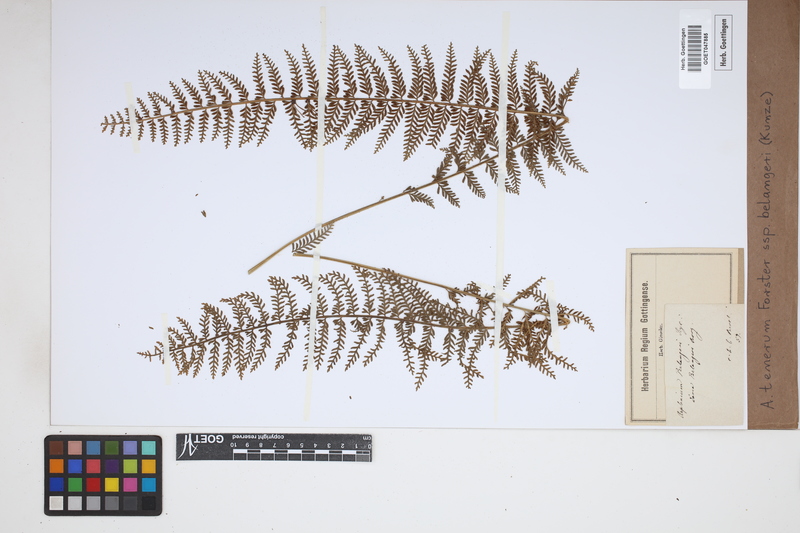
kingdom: Plantae
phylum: Tracheophyta
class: Polypodiopsida
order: Polypodiales
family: Aspleniaceae
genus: Asplenium
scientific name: Asplenium tenerum
